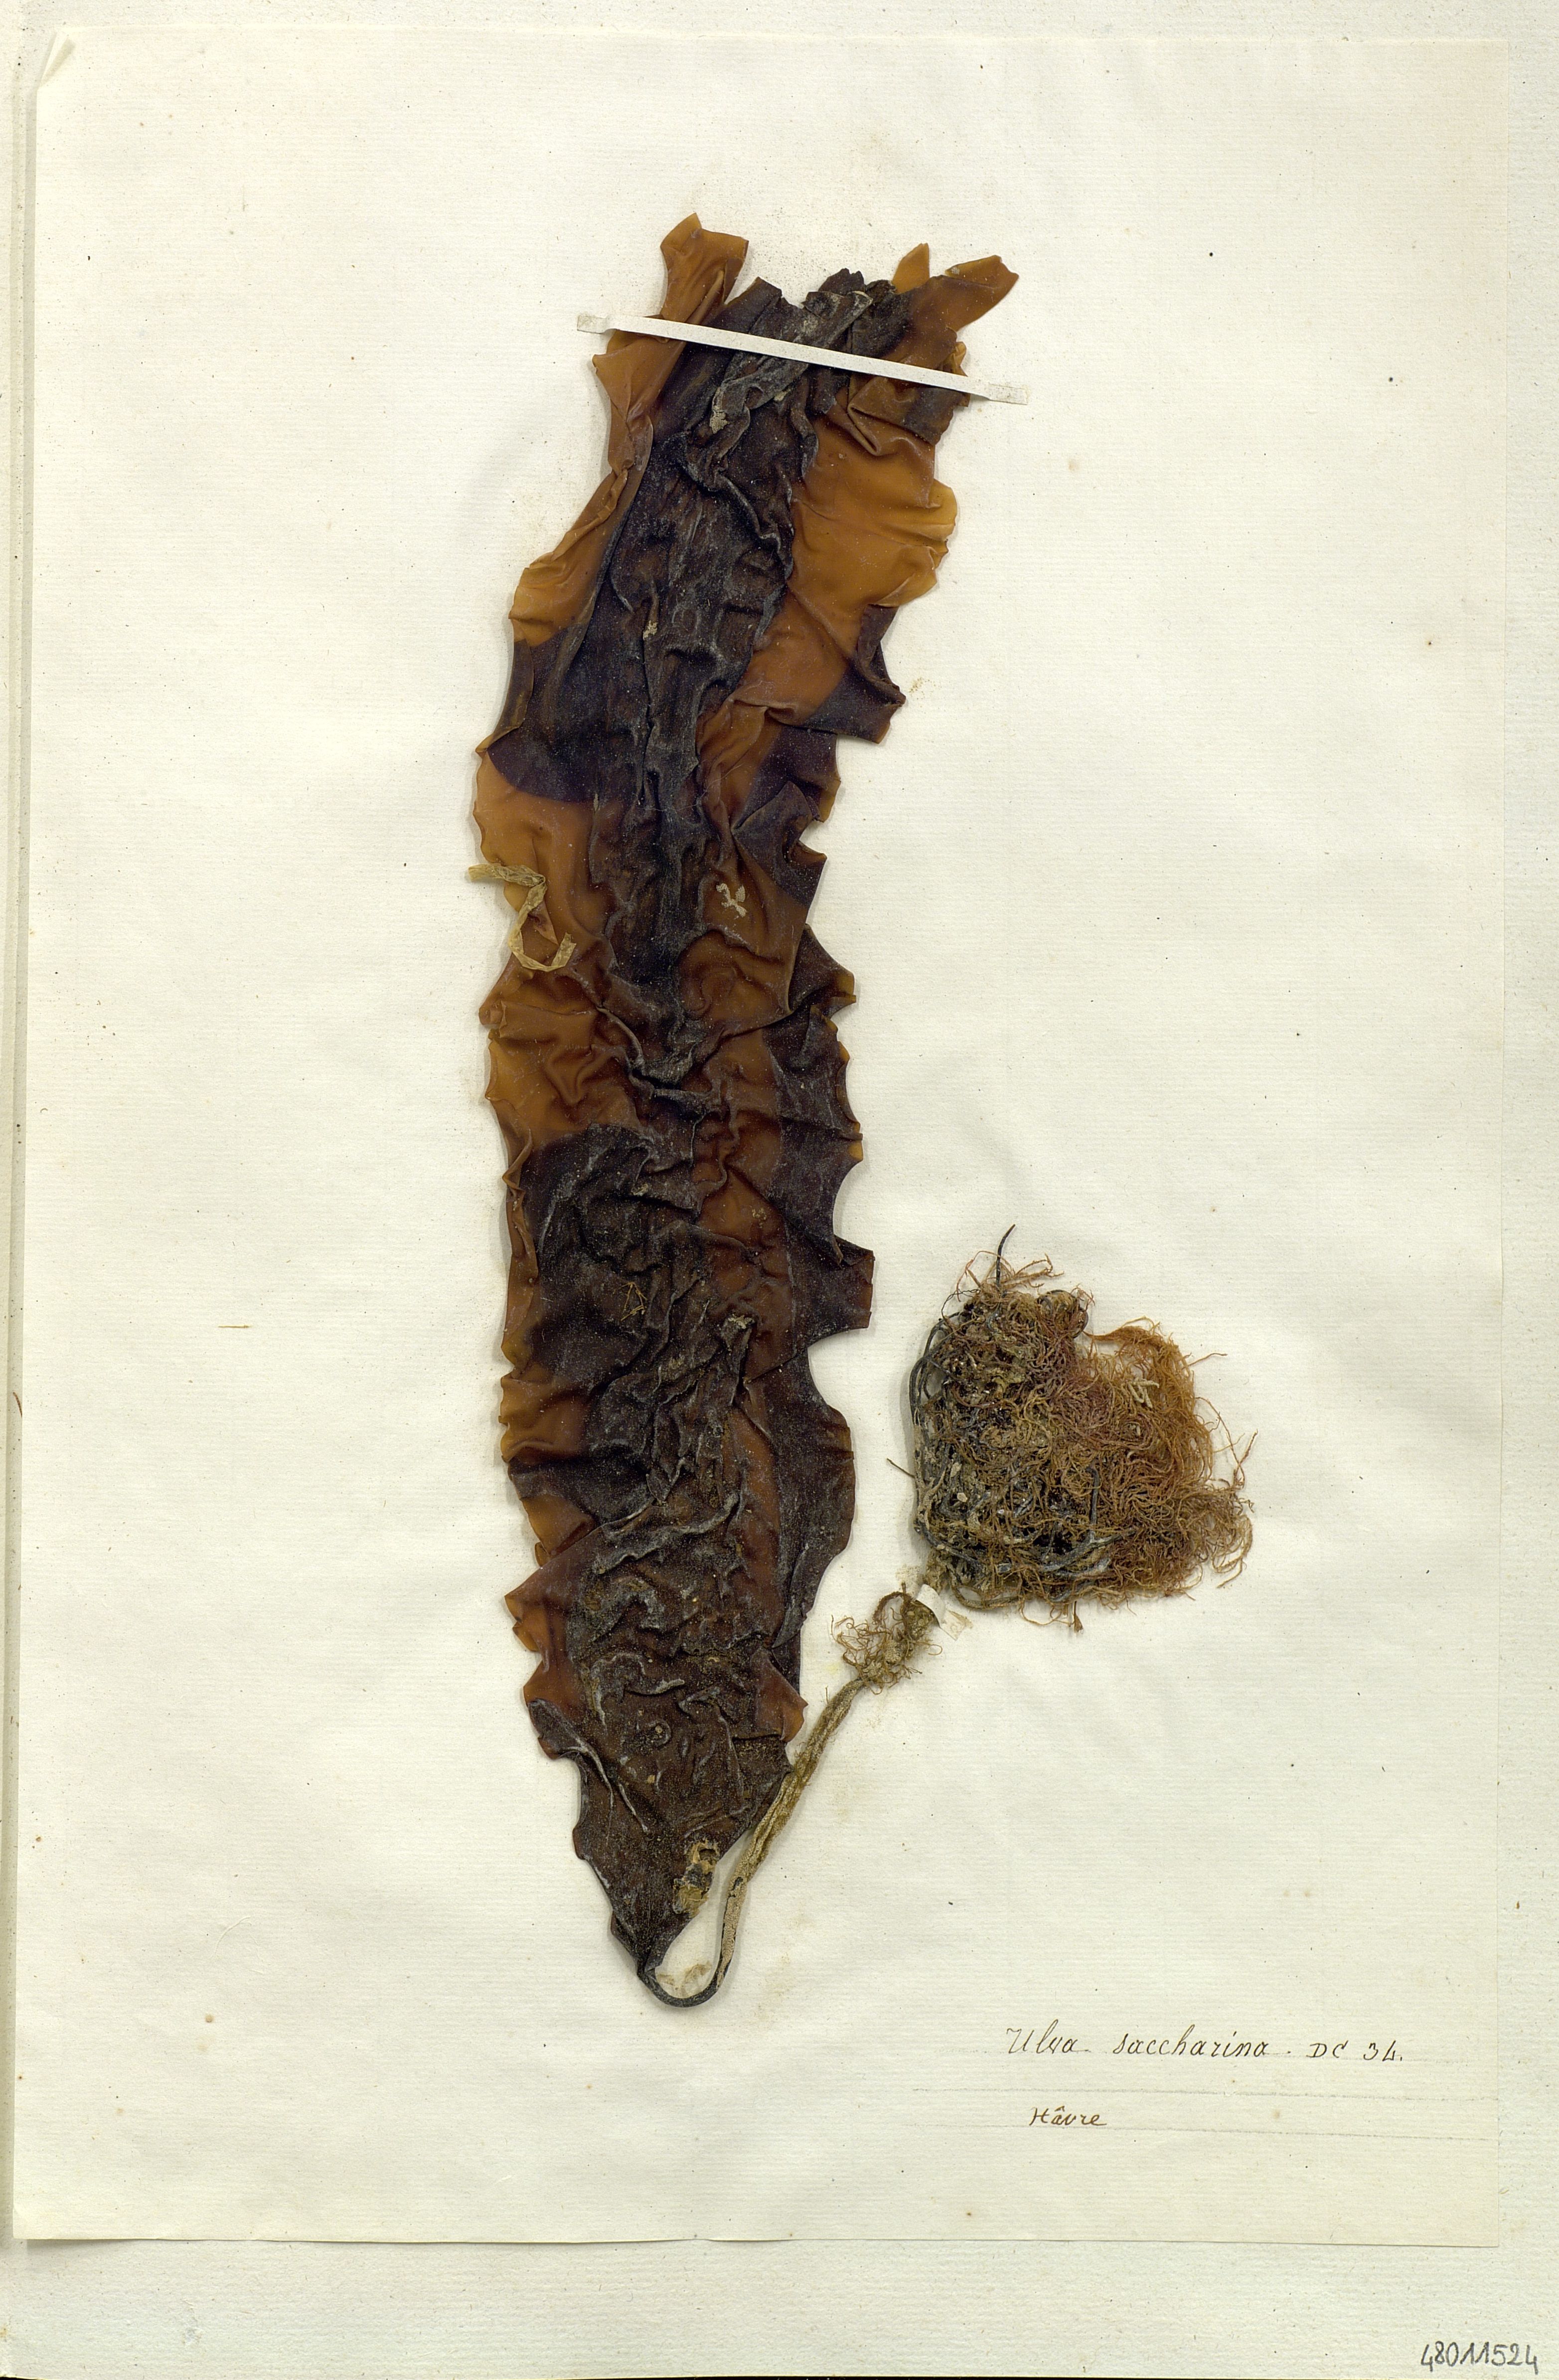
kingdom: Plantae
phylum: Chlorophyta
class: Ulvophyceae
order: Ulvales
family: Ulvaceae
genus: Ulva
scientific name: Ulva
